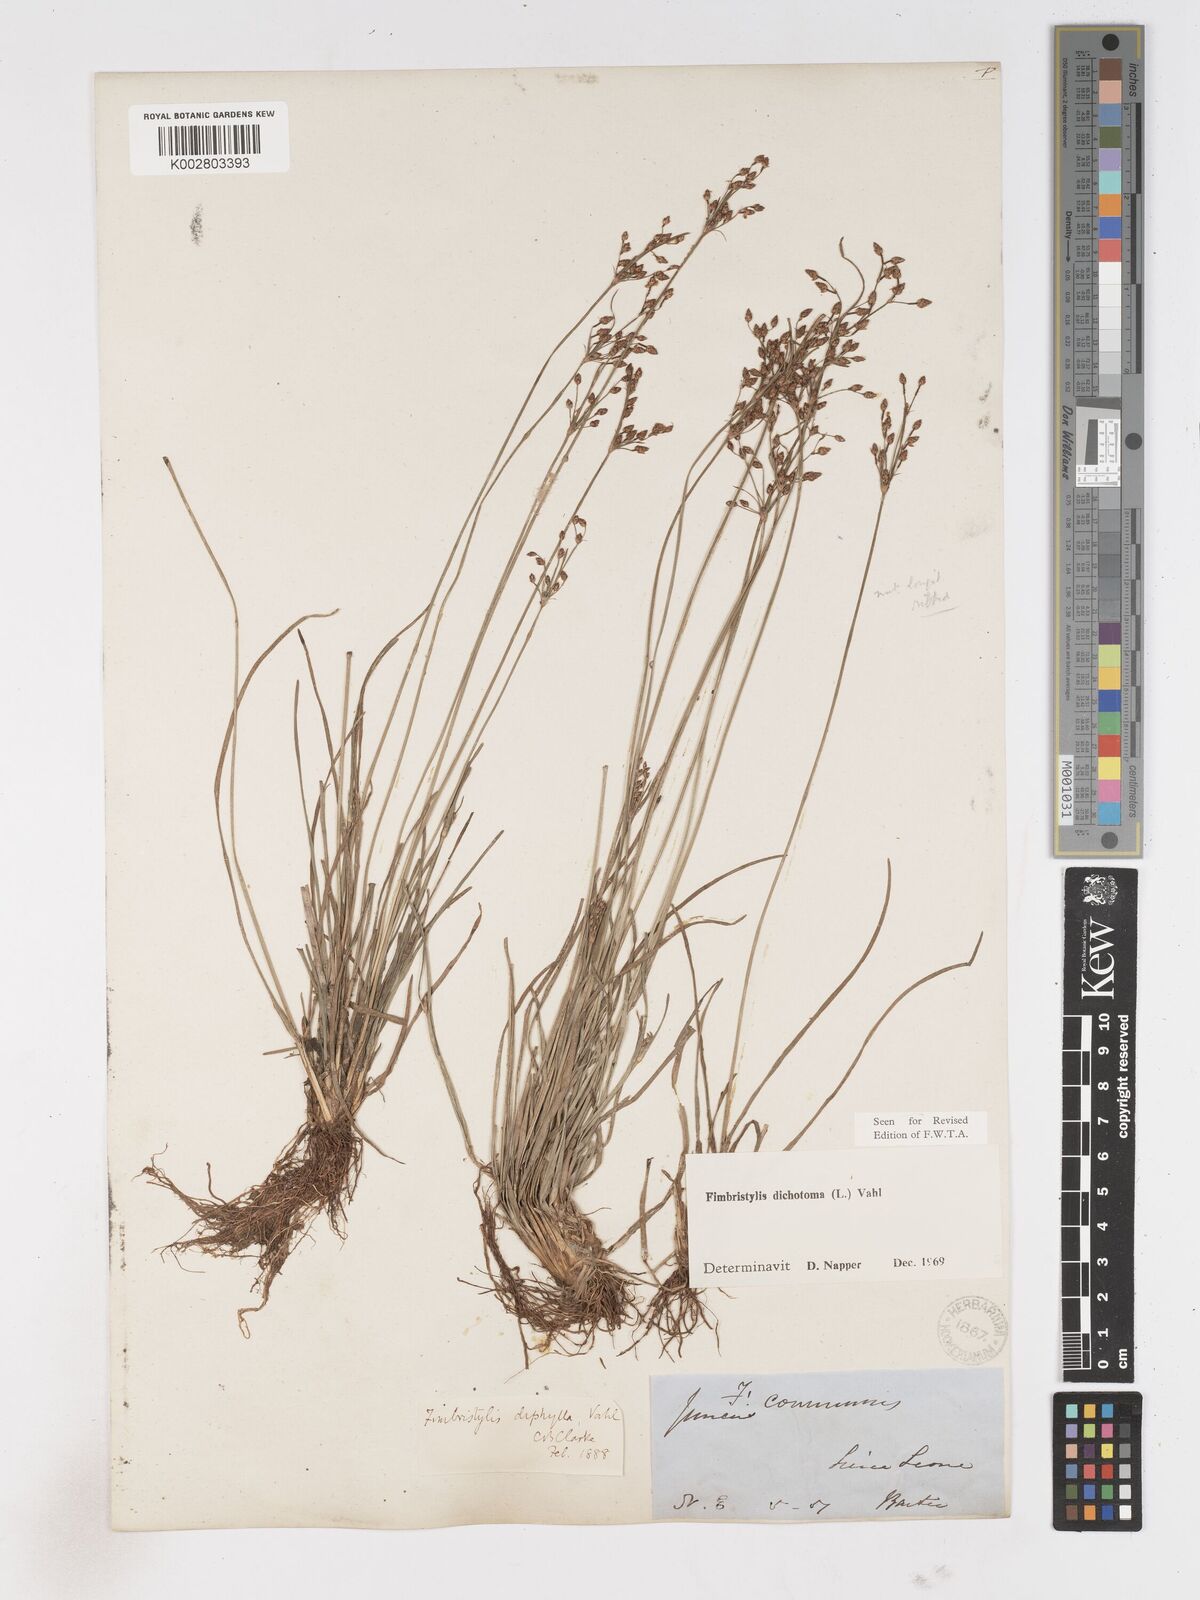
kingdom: Plantae
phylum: Tracheophyta
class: Liliopsida
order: Poales
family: Cyperaceae
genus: Fimbristylis
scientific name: Fimbristylis dichotoma
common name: Forked fimbry
